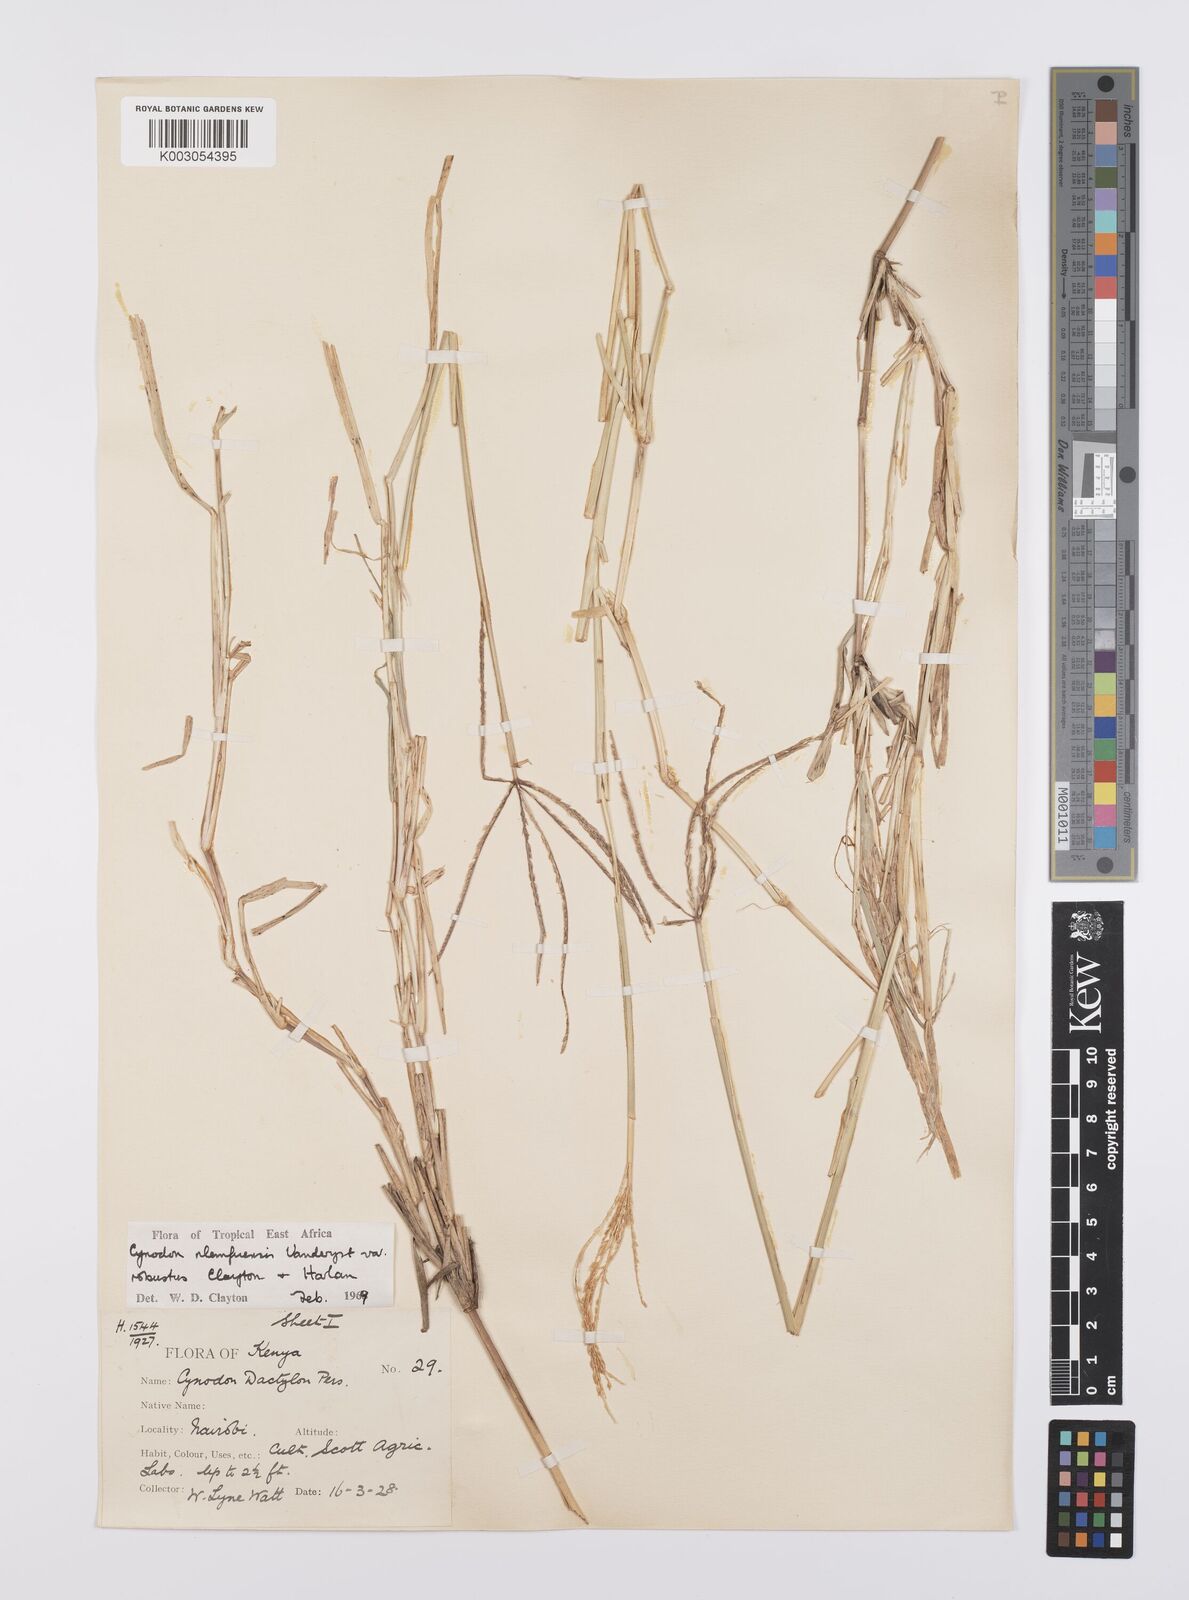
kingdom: Plantae
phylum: Tracheophyta
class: Liliopsida
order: Poales
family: Poaceae
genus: Cynodon
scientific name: Cynodon nlemfuensis
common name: African bermudagrass
